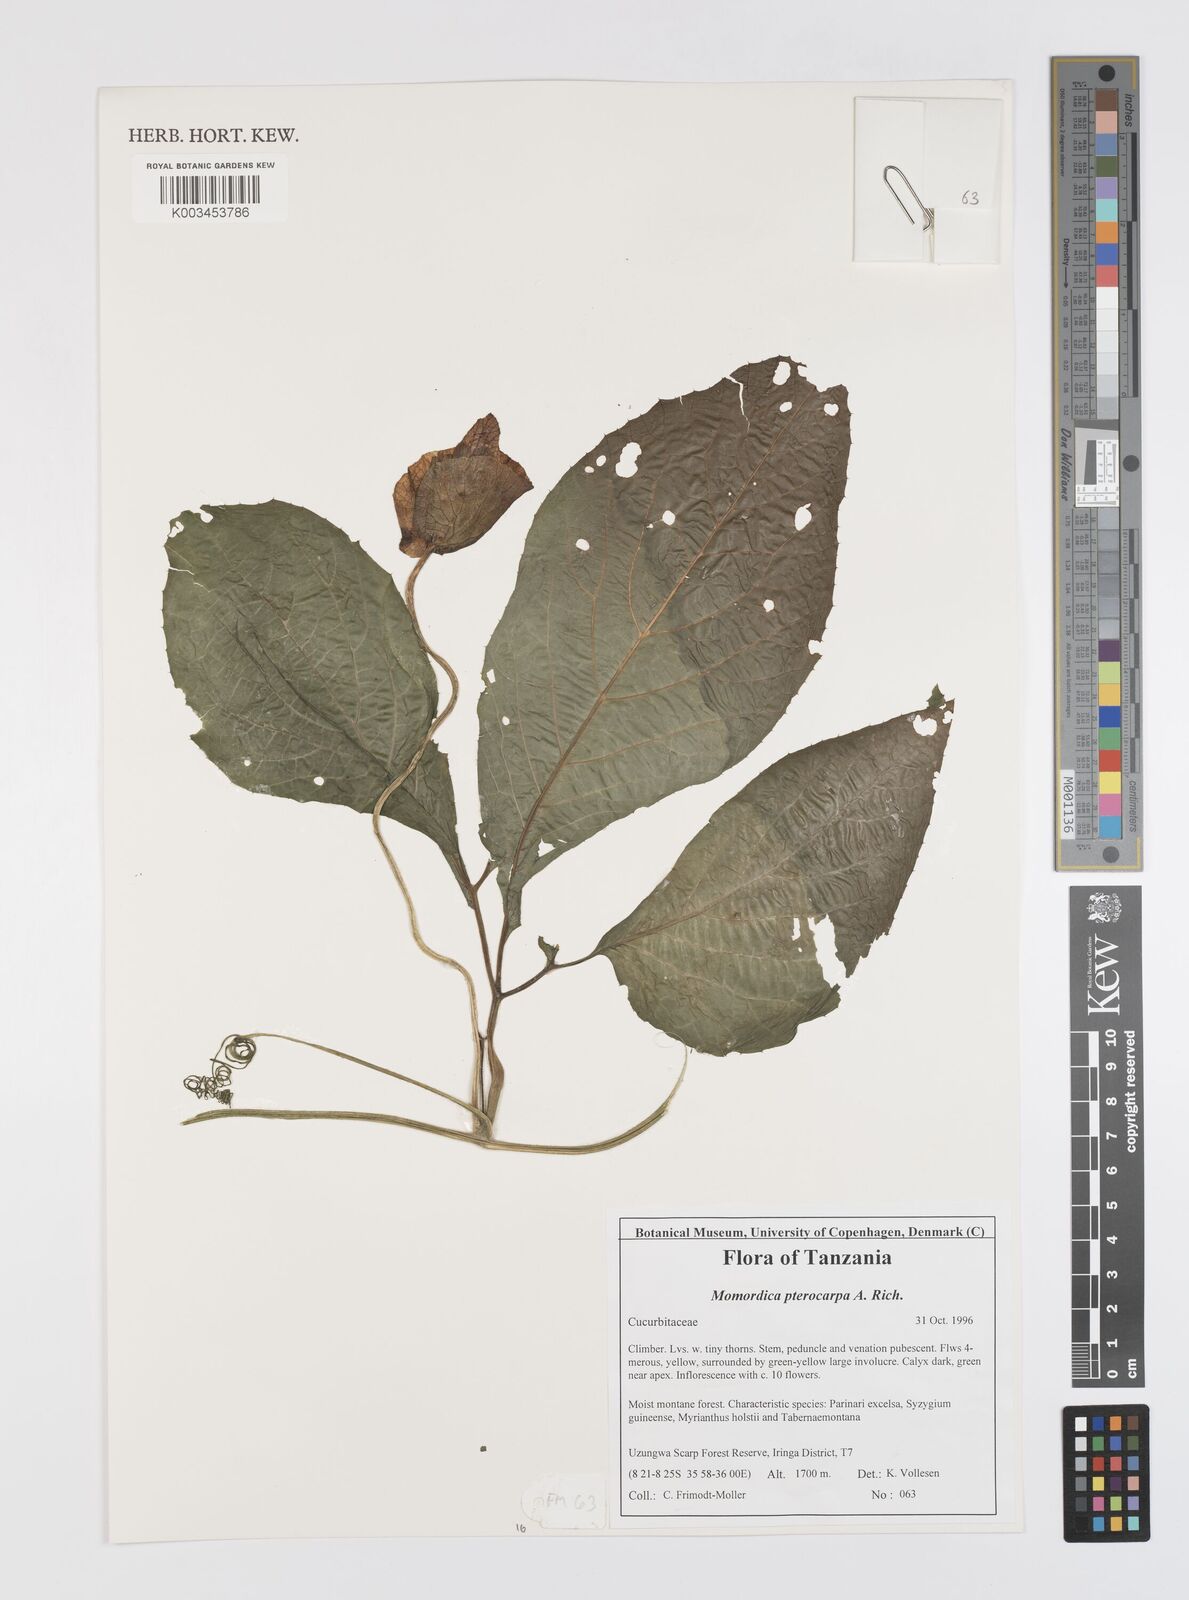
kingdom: Plantae
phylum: Tracheophyta
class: Magnoliopsida
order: Cucurbitales
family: Cucurbitaceae
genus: Momordica
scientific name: Momordica pterocarpa
